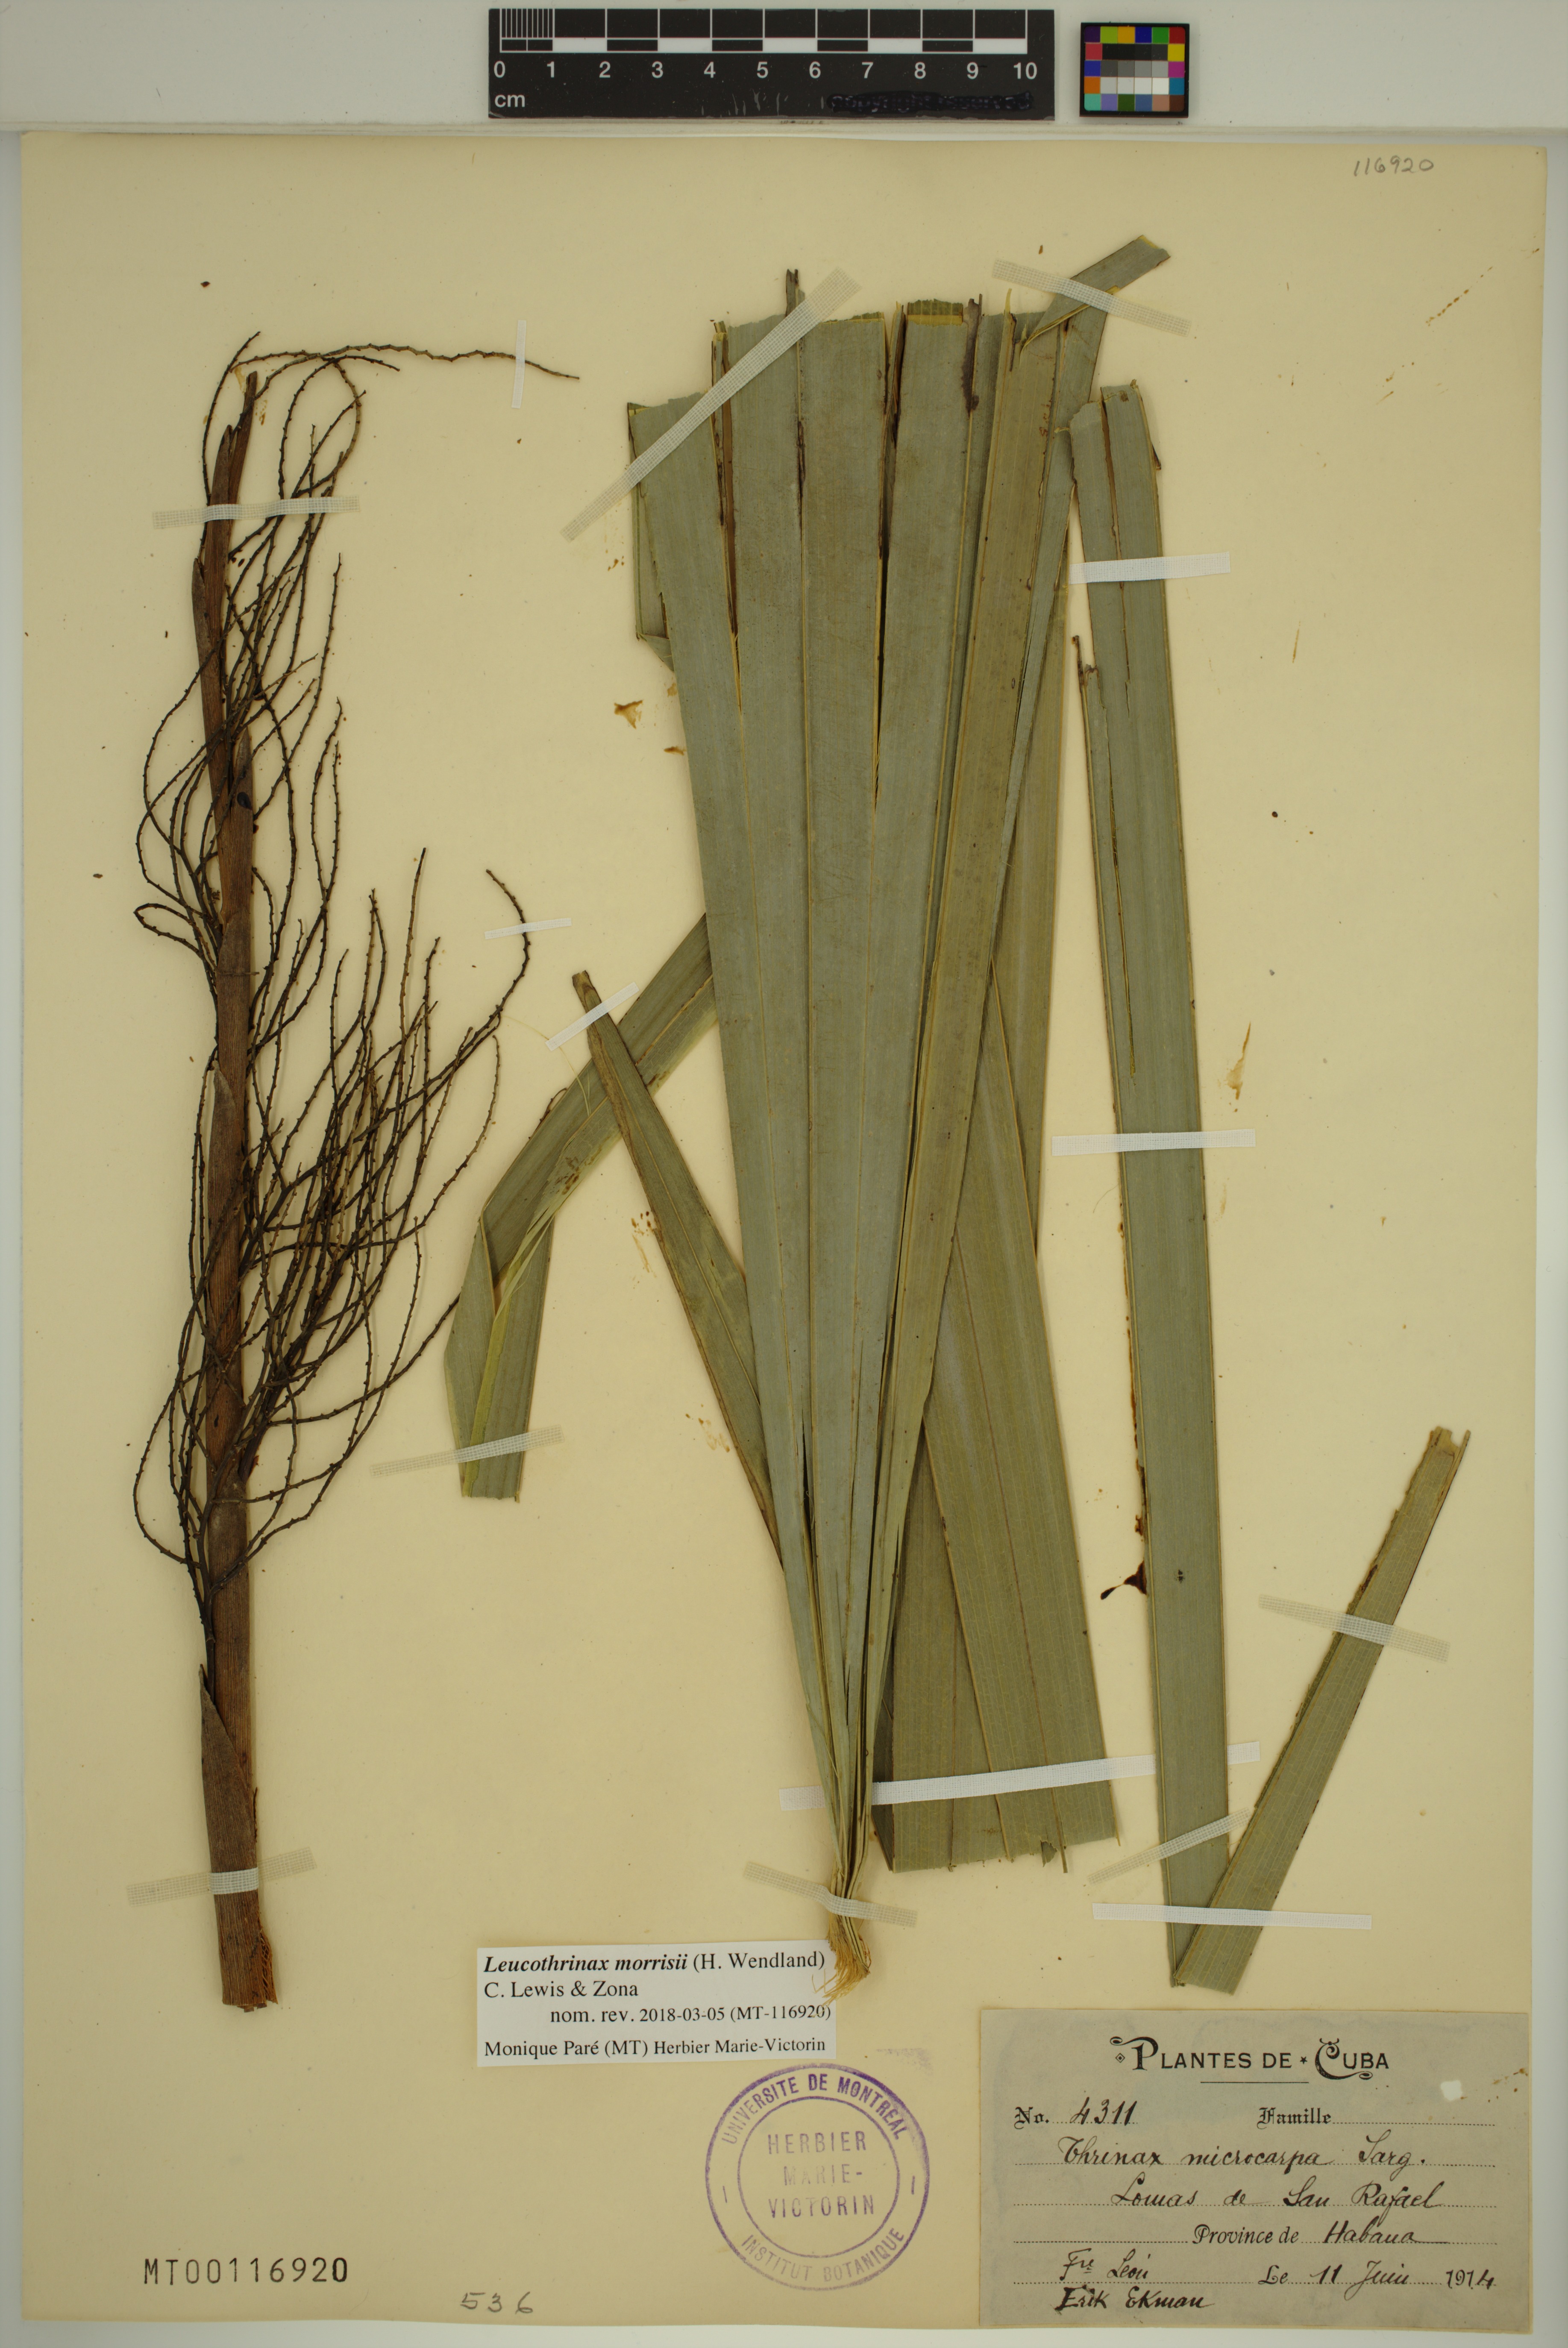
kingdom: Plantae
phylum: Tracheophyta
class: Liliopsida
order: Arecales
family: Arecaceae
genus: Leucothrinax
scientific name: Leucothrinax morrisii
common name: Key palm
